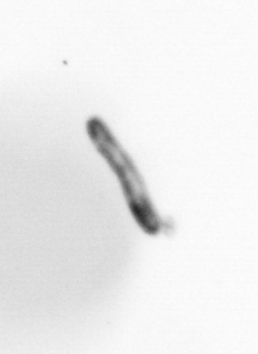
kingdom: Chromista
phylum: Ochrophyta
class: Bacillariophyceae
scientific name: Bacillariophyceae
